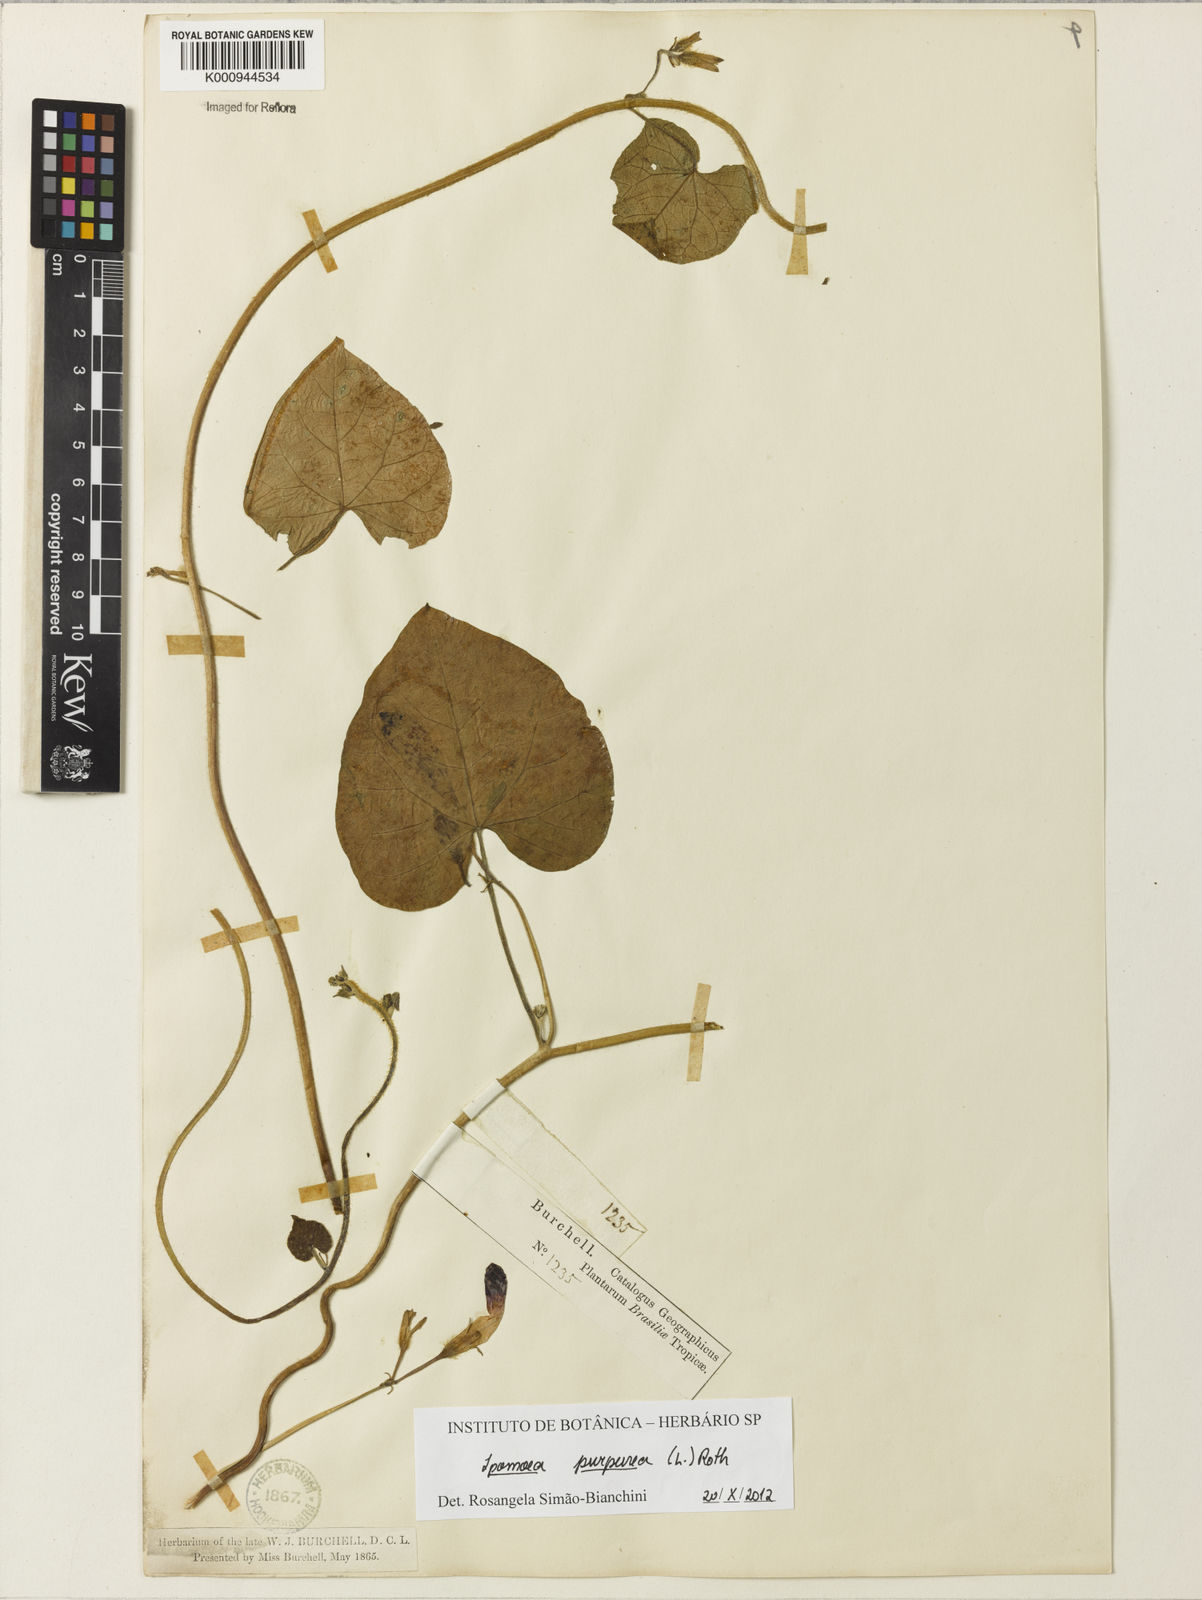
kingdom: Plantae
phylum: Tracheophyta
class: Magnoliopsida
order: Solanales
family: Convolvulaceae
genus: Ipomoea
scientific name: Ipomoea purpurea
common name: Common morning-glory
